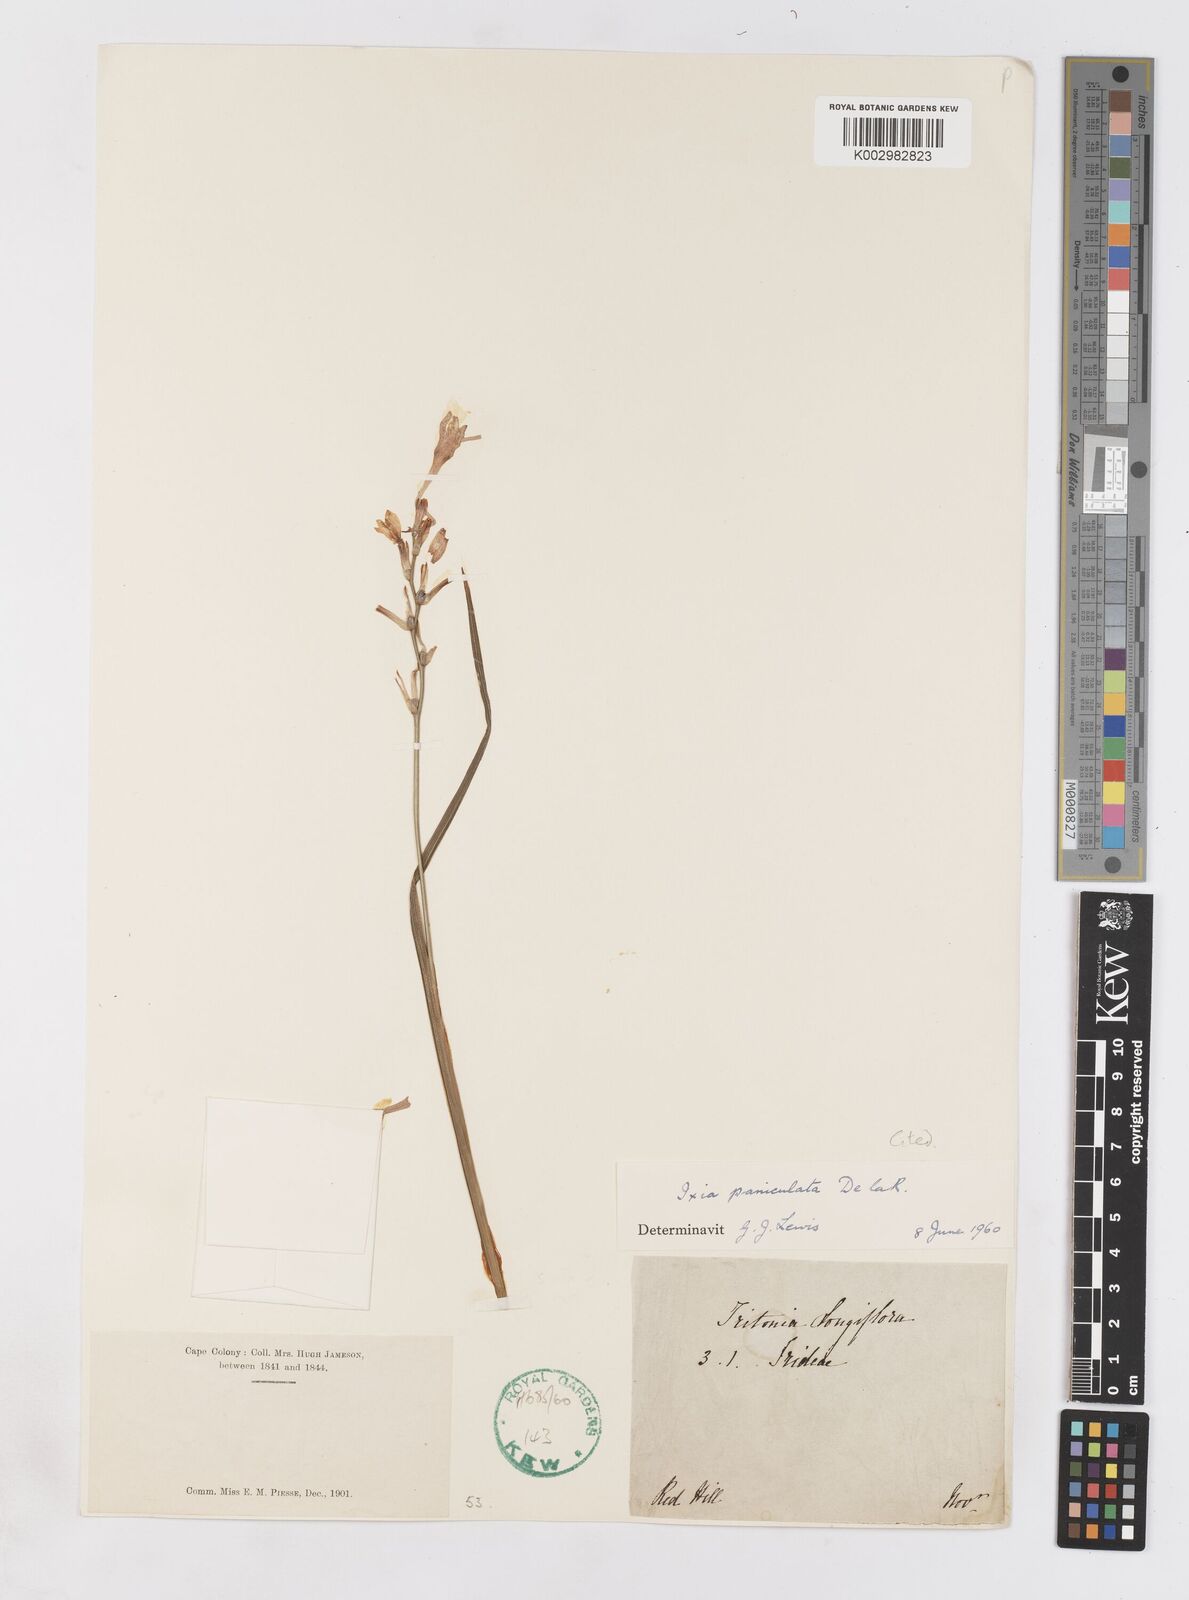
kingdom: Plantae
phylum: Tracheophyta
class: Liliopsida
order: Asparagales
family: Iridaceae
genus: Ixia
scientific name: Ixia paniculata
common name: Tubular corn-lily
